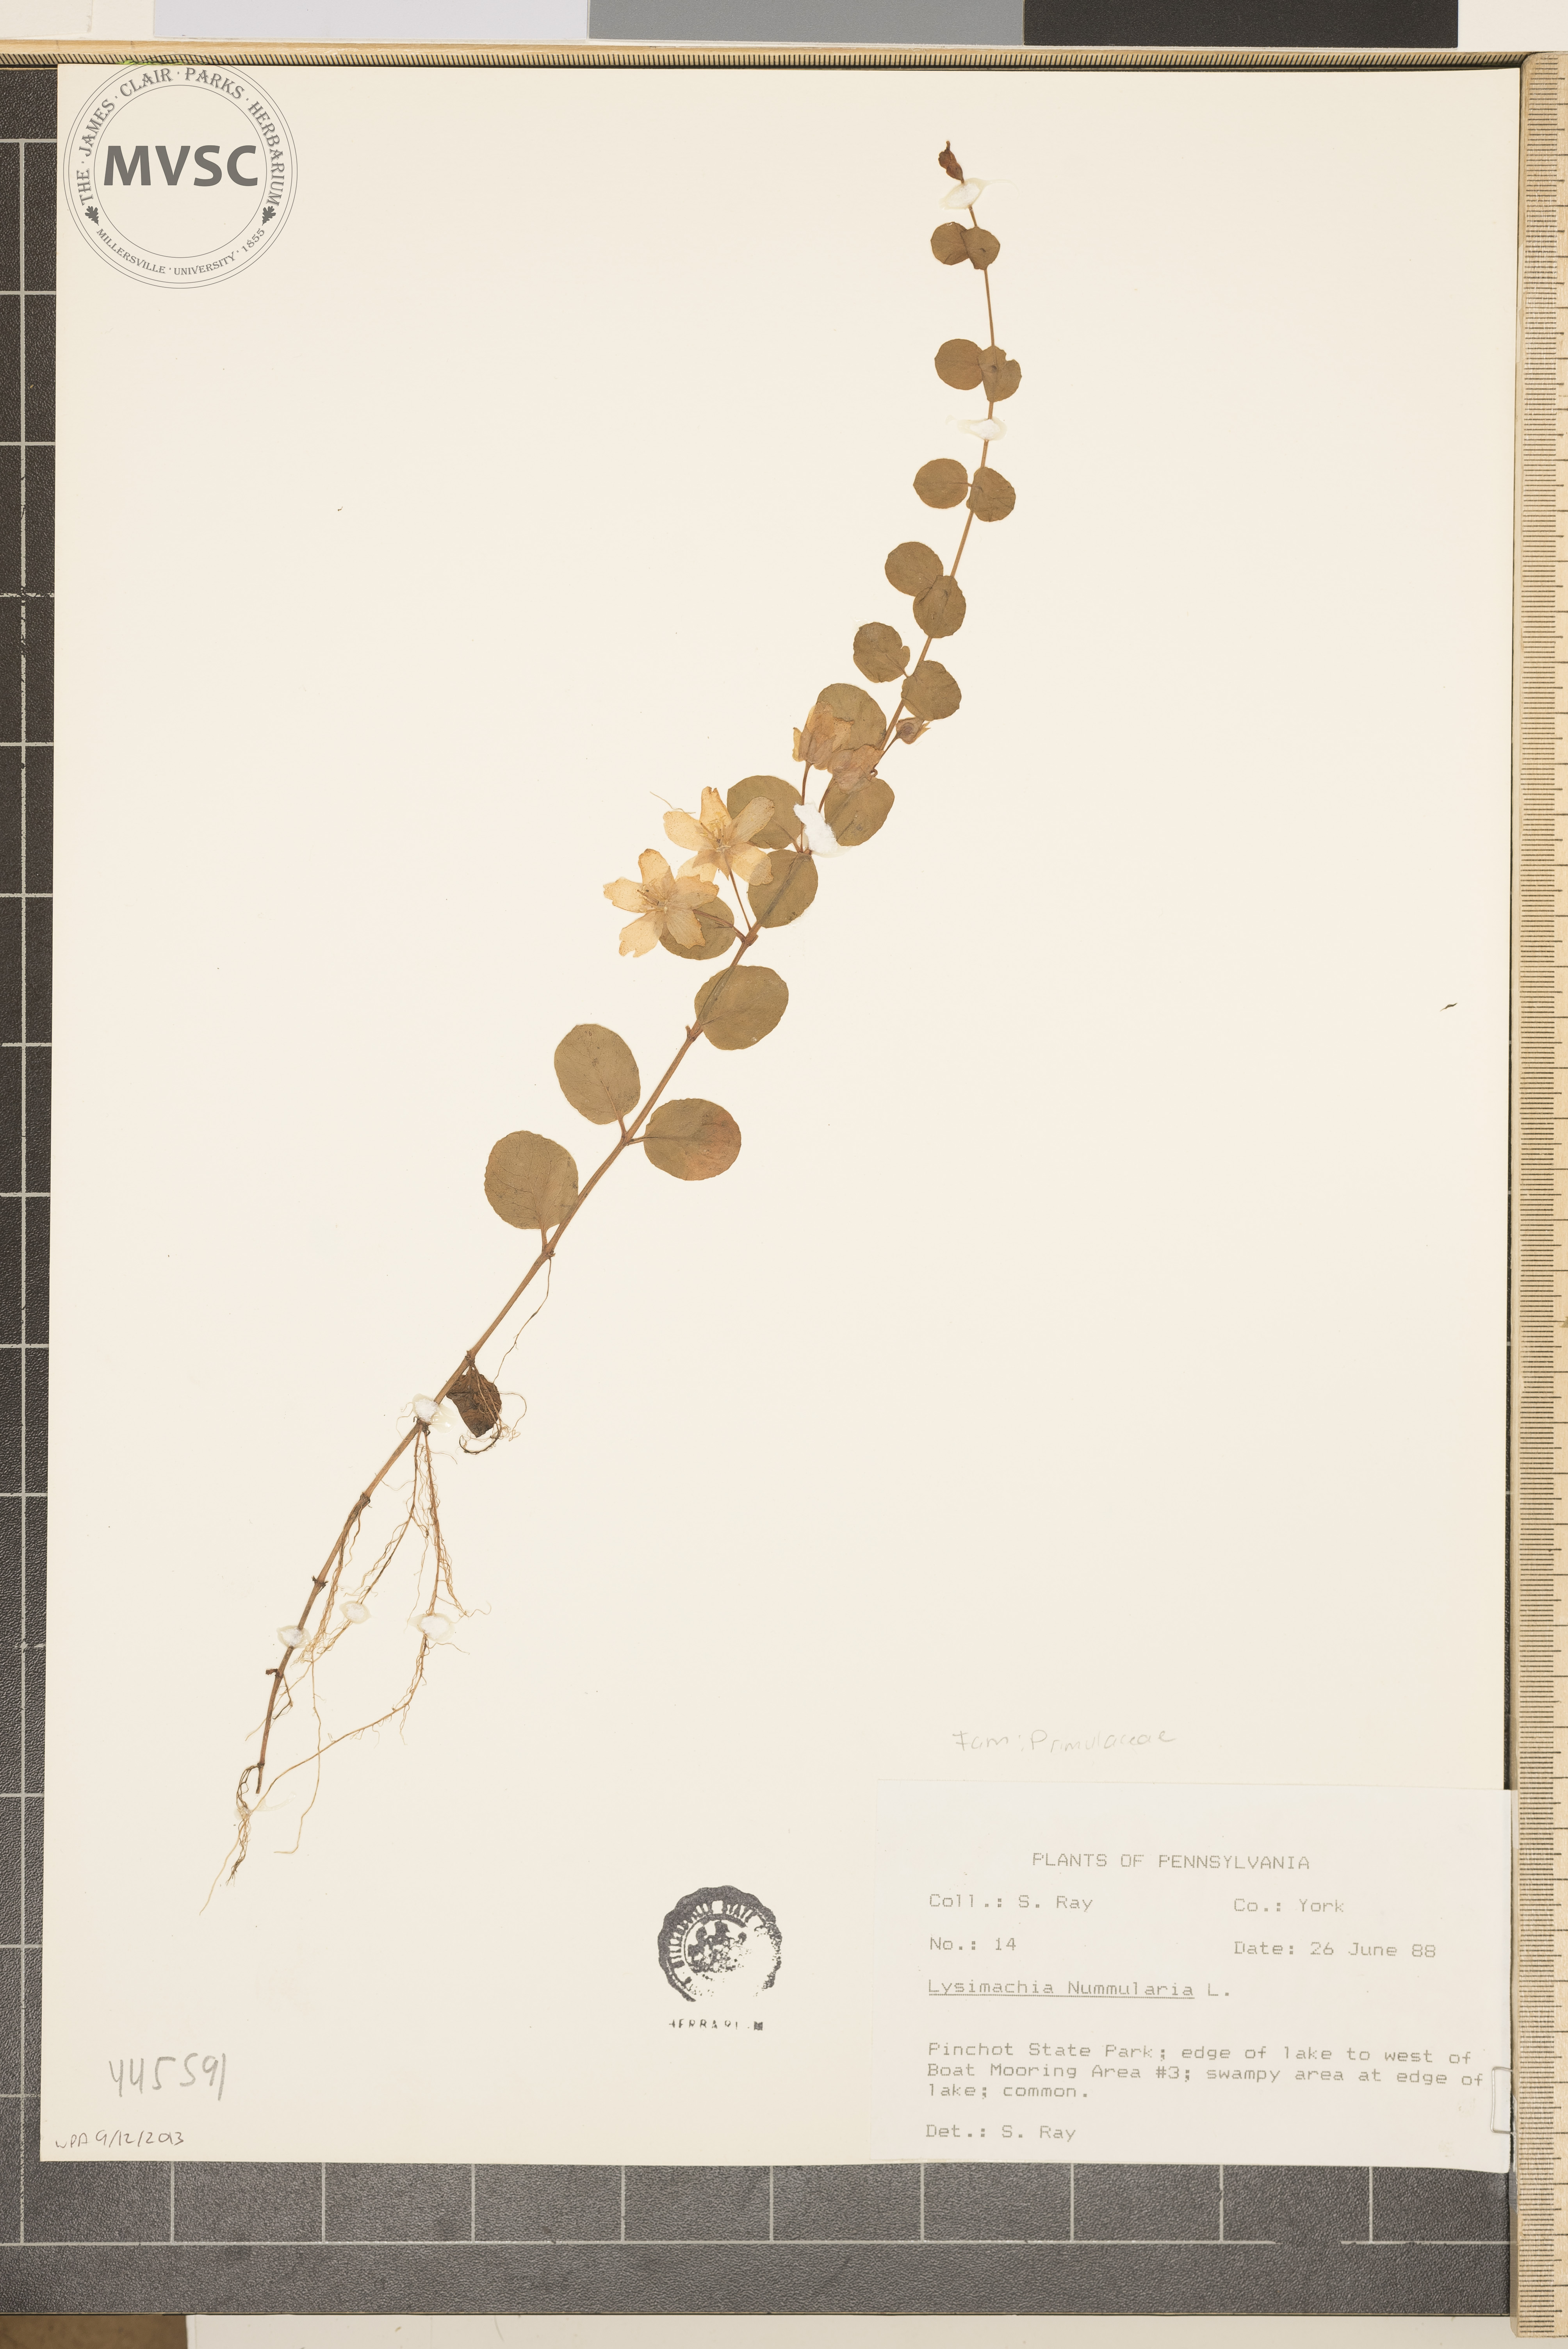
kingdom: Plantae
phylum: Tracheophyta
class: Magnoliopsida
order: Ericales
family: Primulaceae
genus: Lysimachia
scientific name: Lysimachia nummularia
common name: Moneywort
